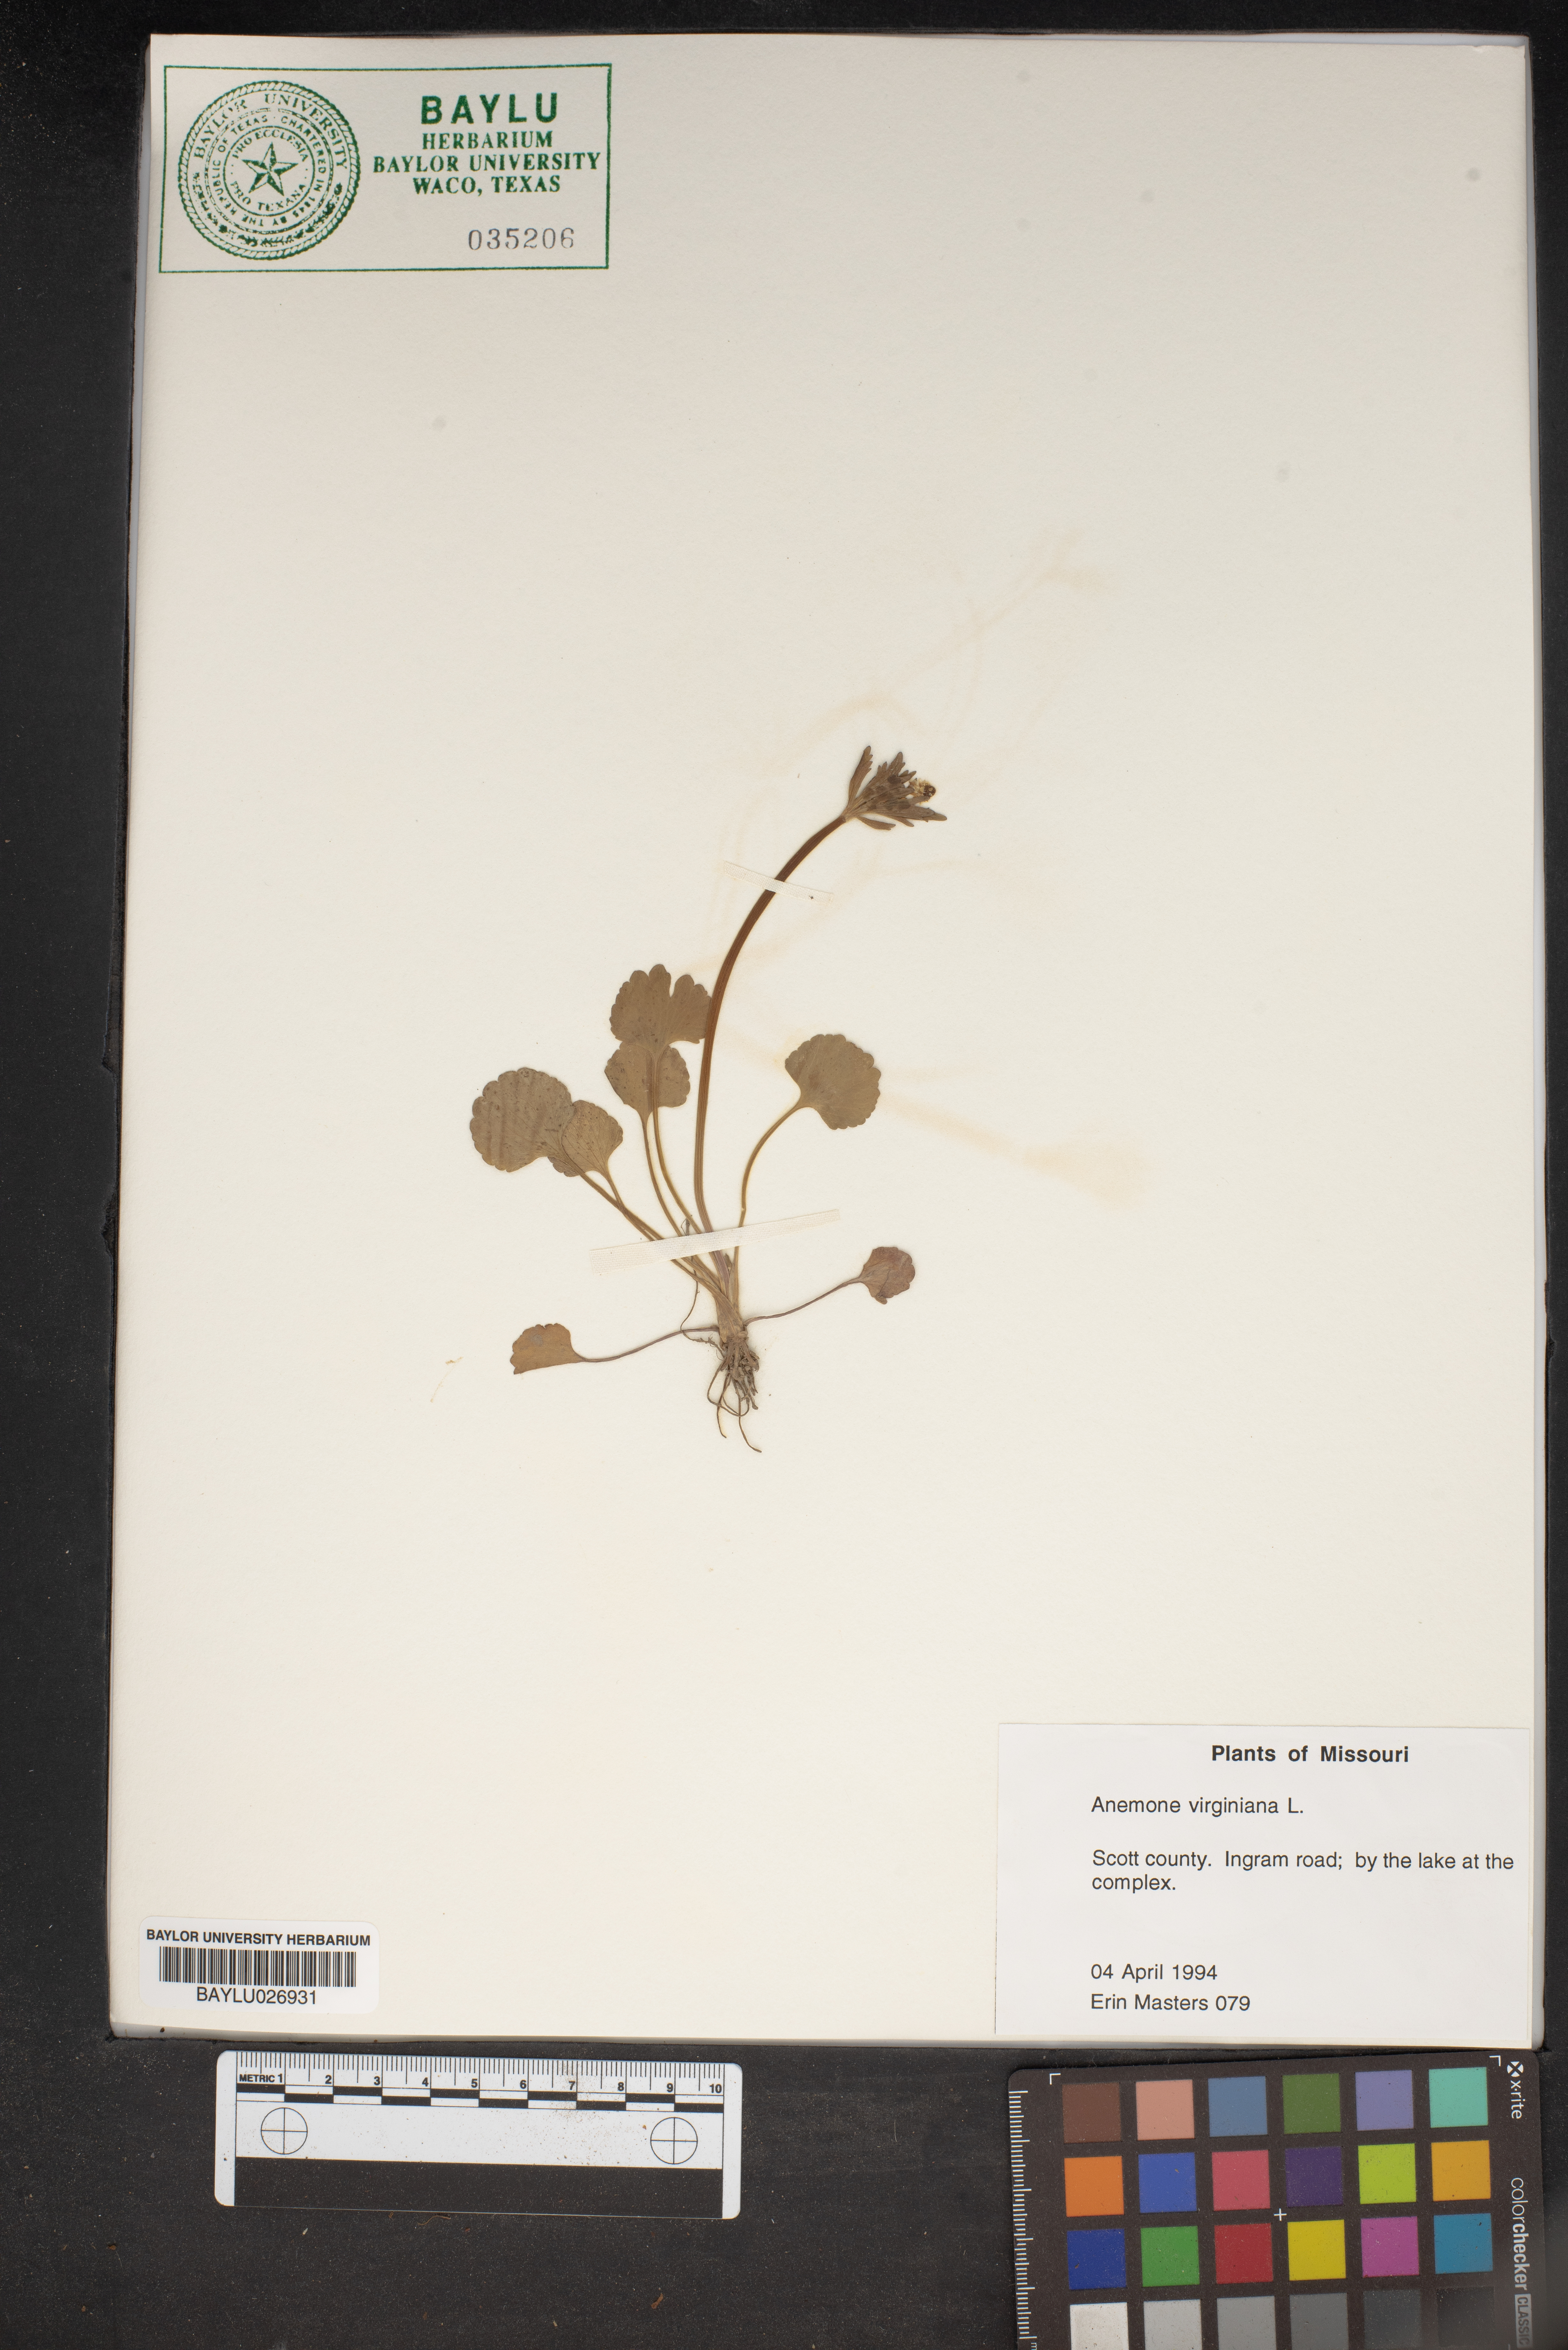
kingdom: Plantae
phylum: Tracheophyta
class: Magnoliopsida
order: Ranunculales
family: Ranunculaceae
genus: Anemone
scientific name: Anemone virginiana
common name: Tall anemone
